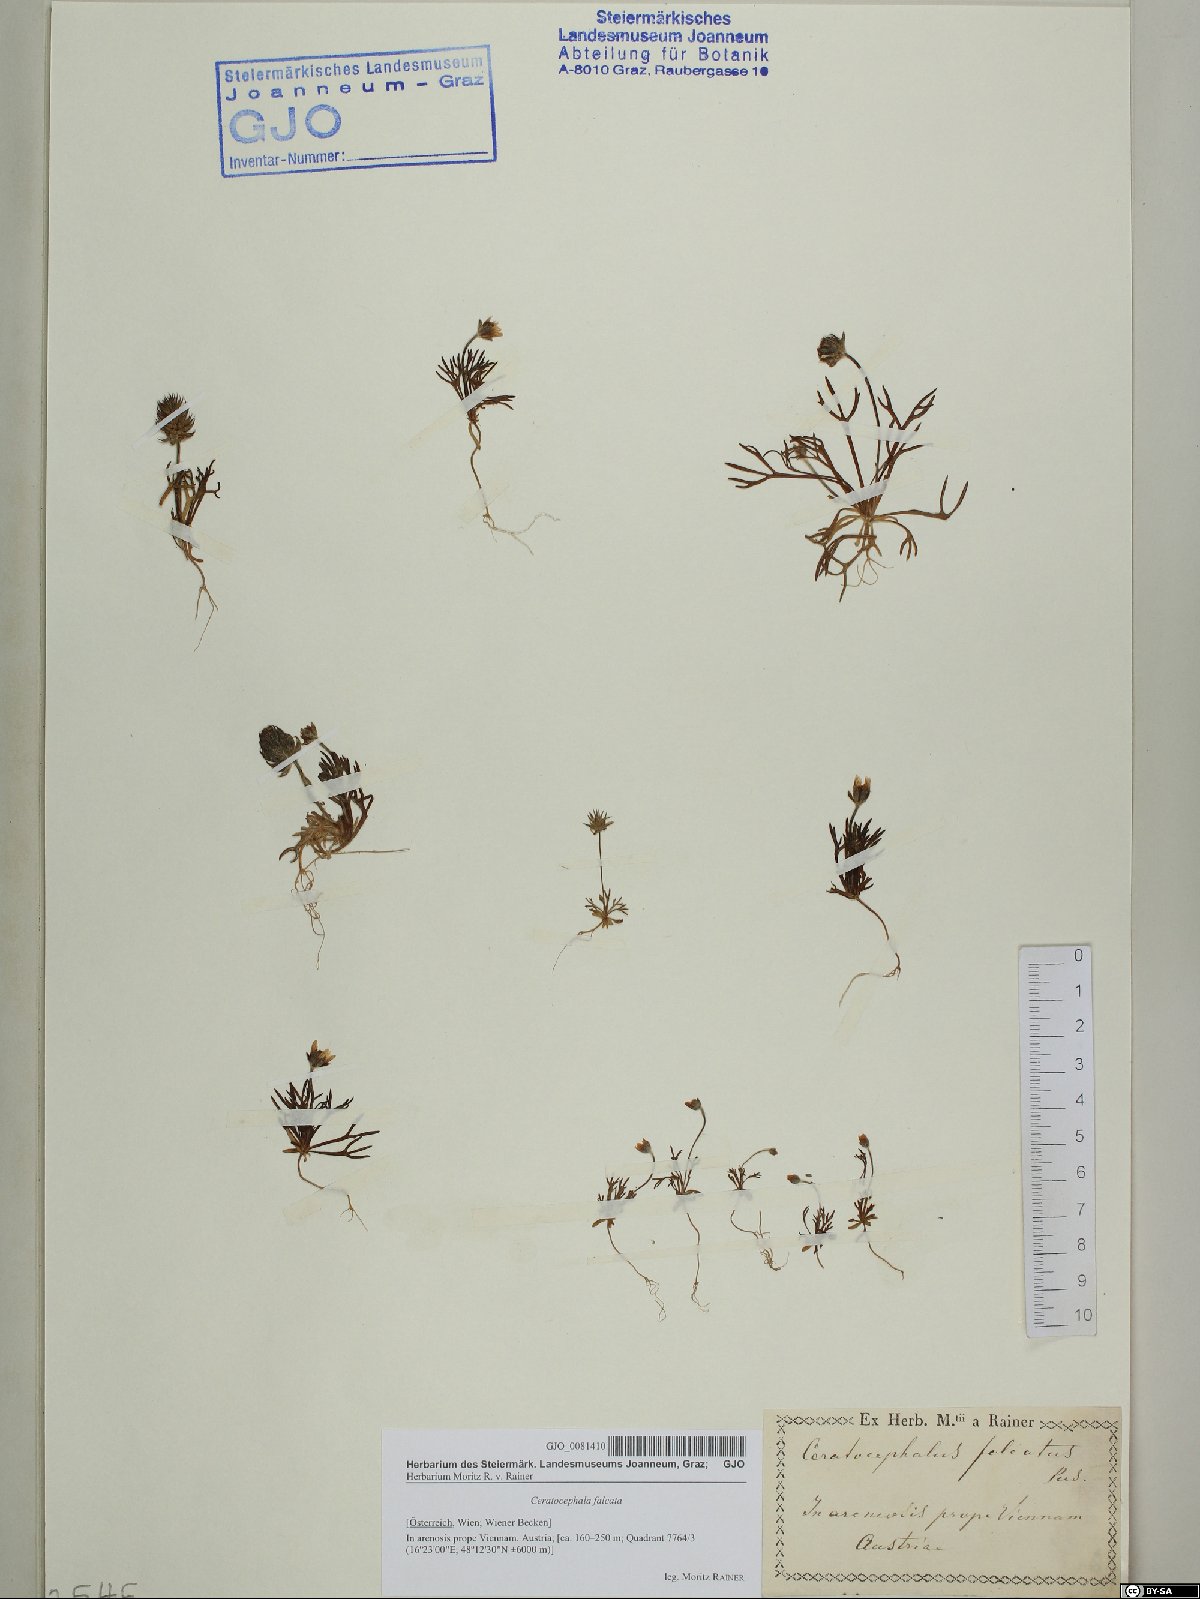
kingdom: Plantae
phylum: Tracheophyta
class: Magnoliopsida
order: Ranunculales
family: Ranunculaceae
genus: Ceratocephala
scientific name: Ceratocephala falcata
